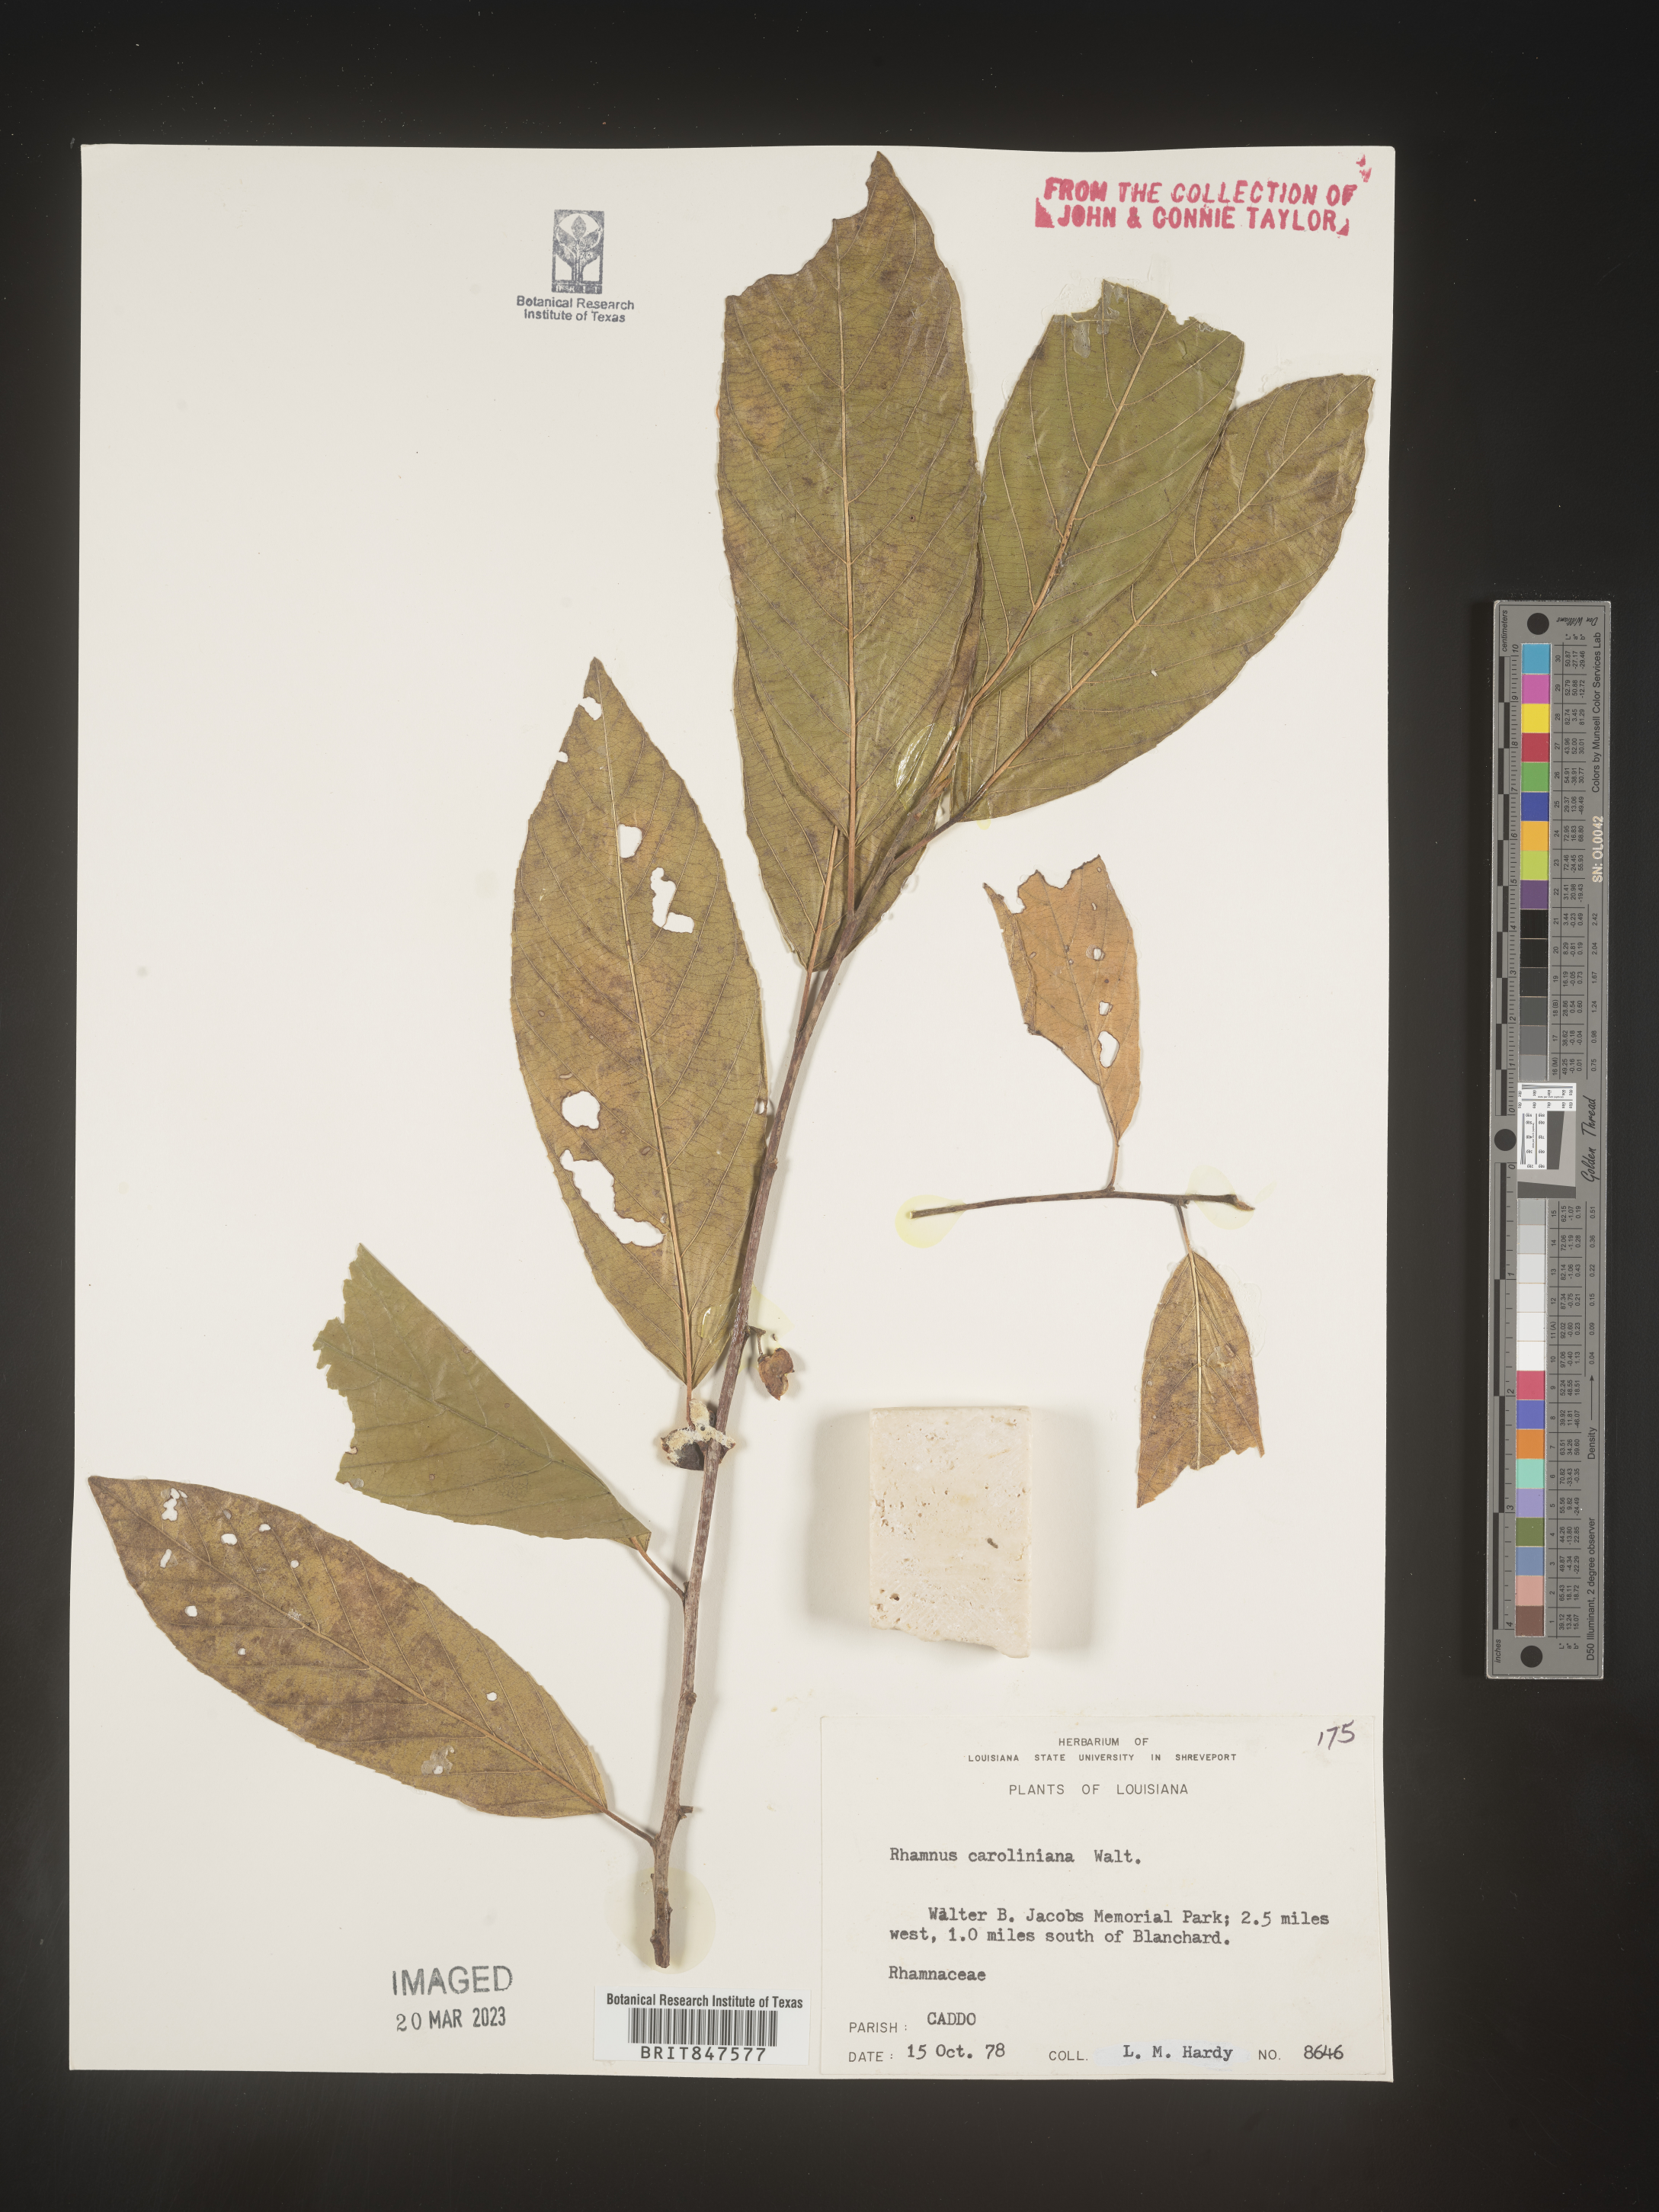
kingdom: Plantae
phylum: Tracheophyta
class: Magnoliopsida
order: Rosales
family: Rhamnaceae
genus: Frangula
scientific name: Frangula caroliniana
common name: Carolina buckthorn
